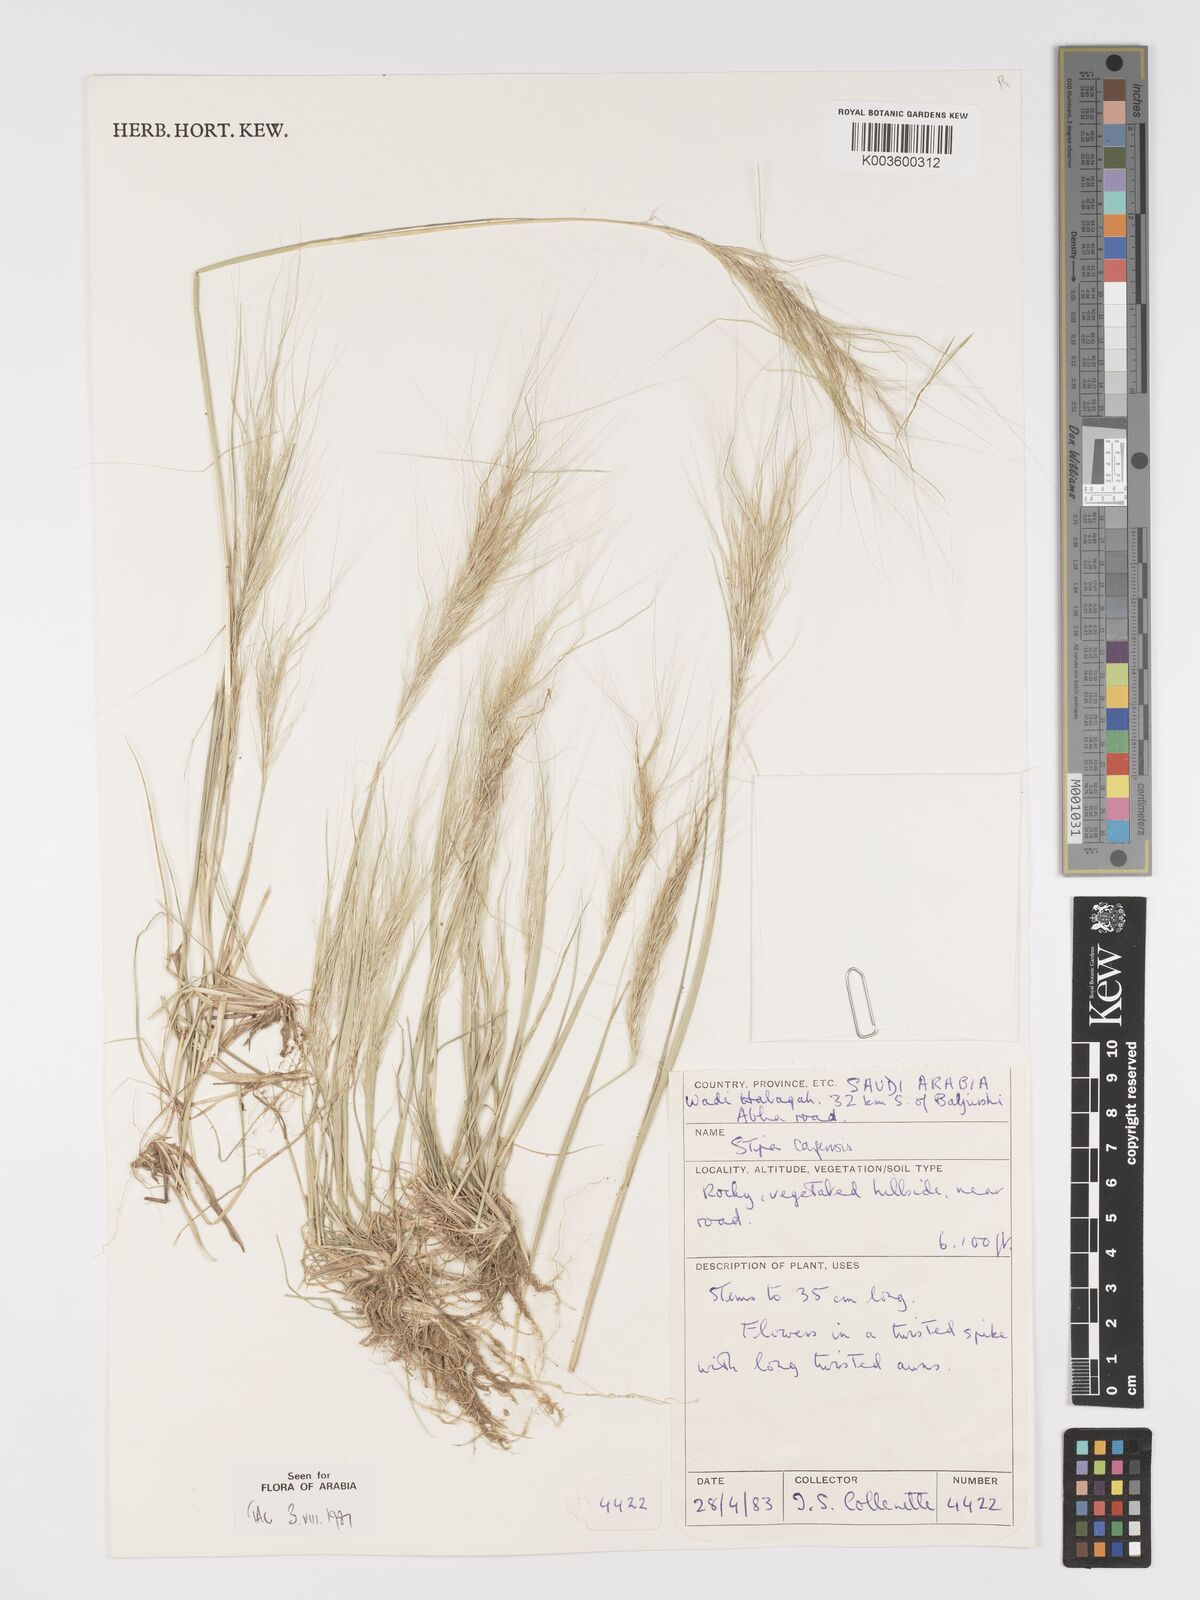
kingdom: Plantae
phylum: Tracheophyta
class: Liliopsida
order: Poales
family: Poaceae
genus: Stipellula
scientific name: Stipellula capensis
